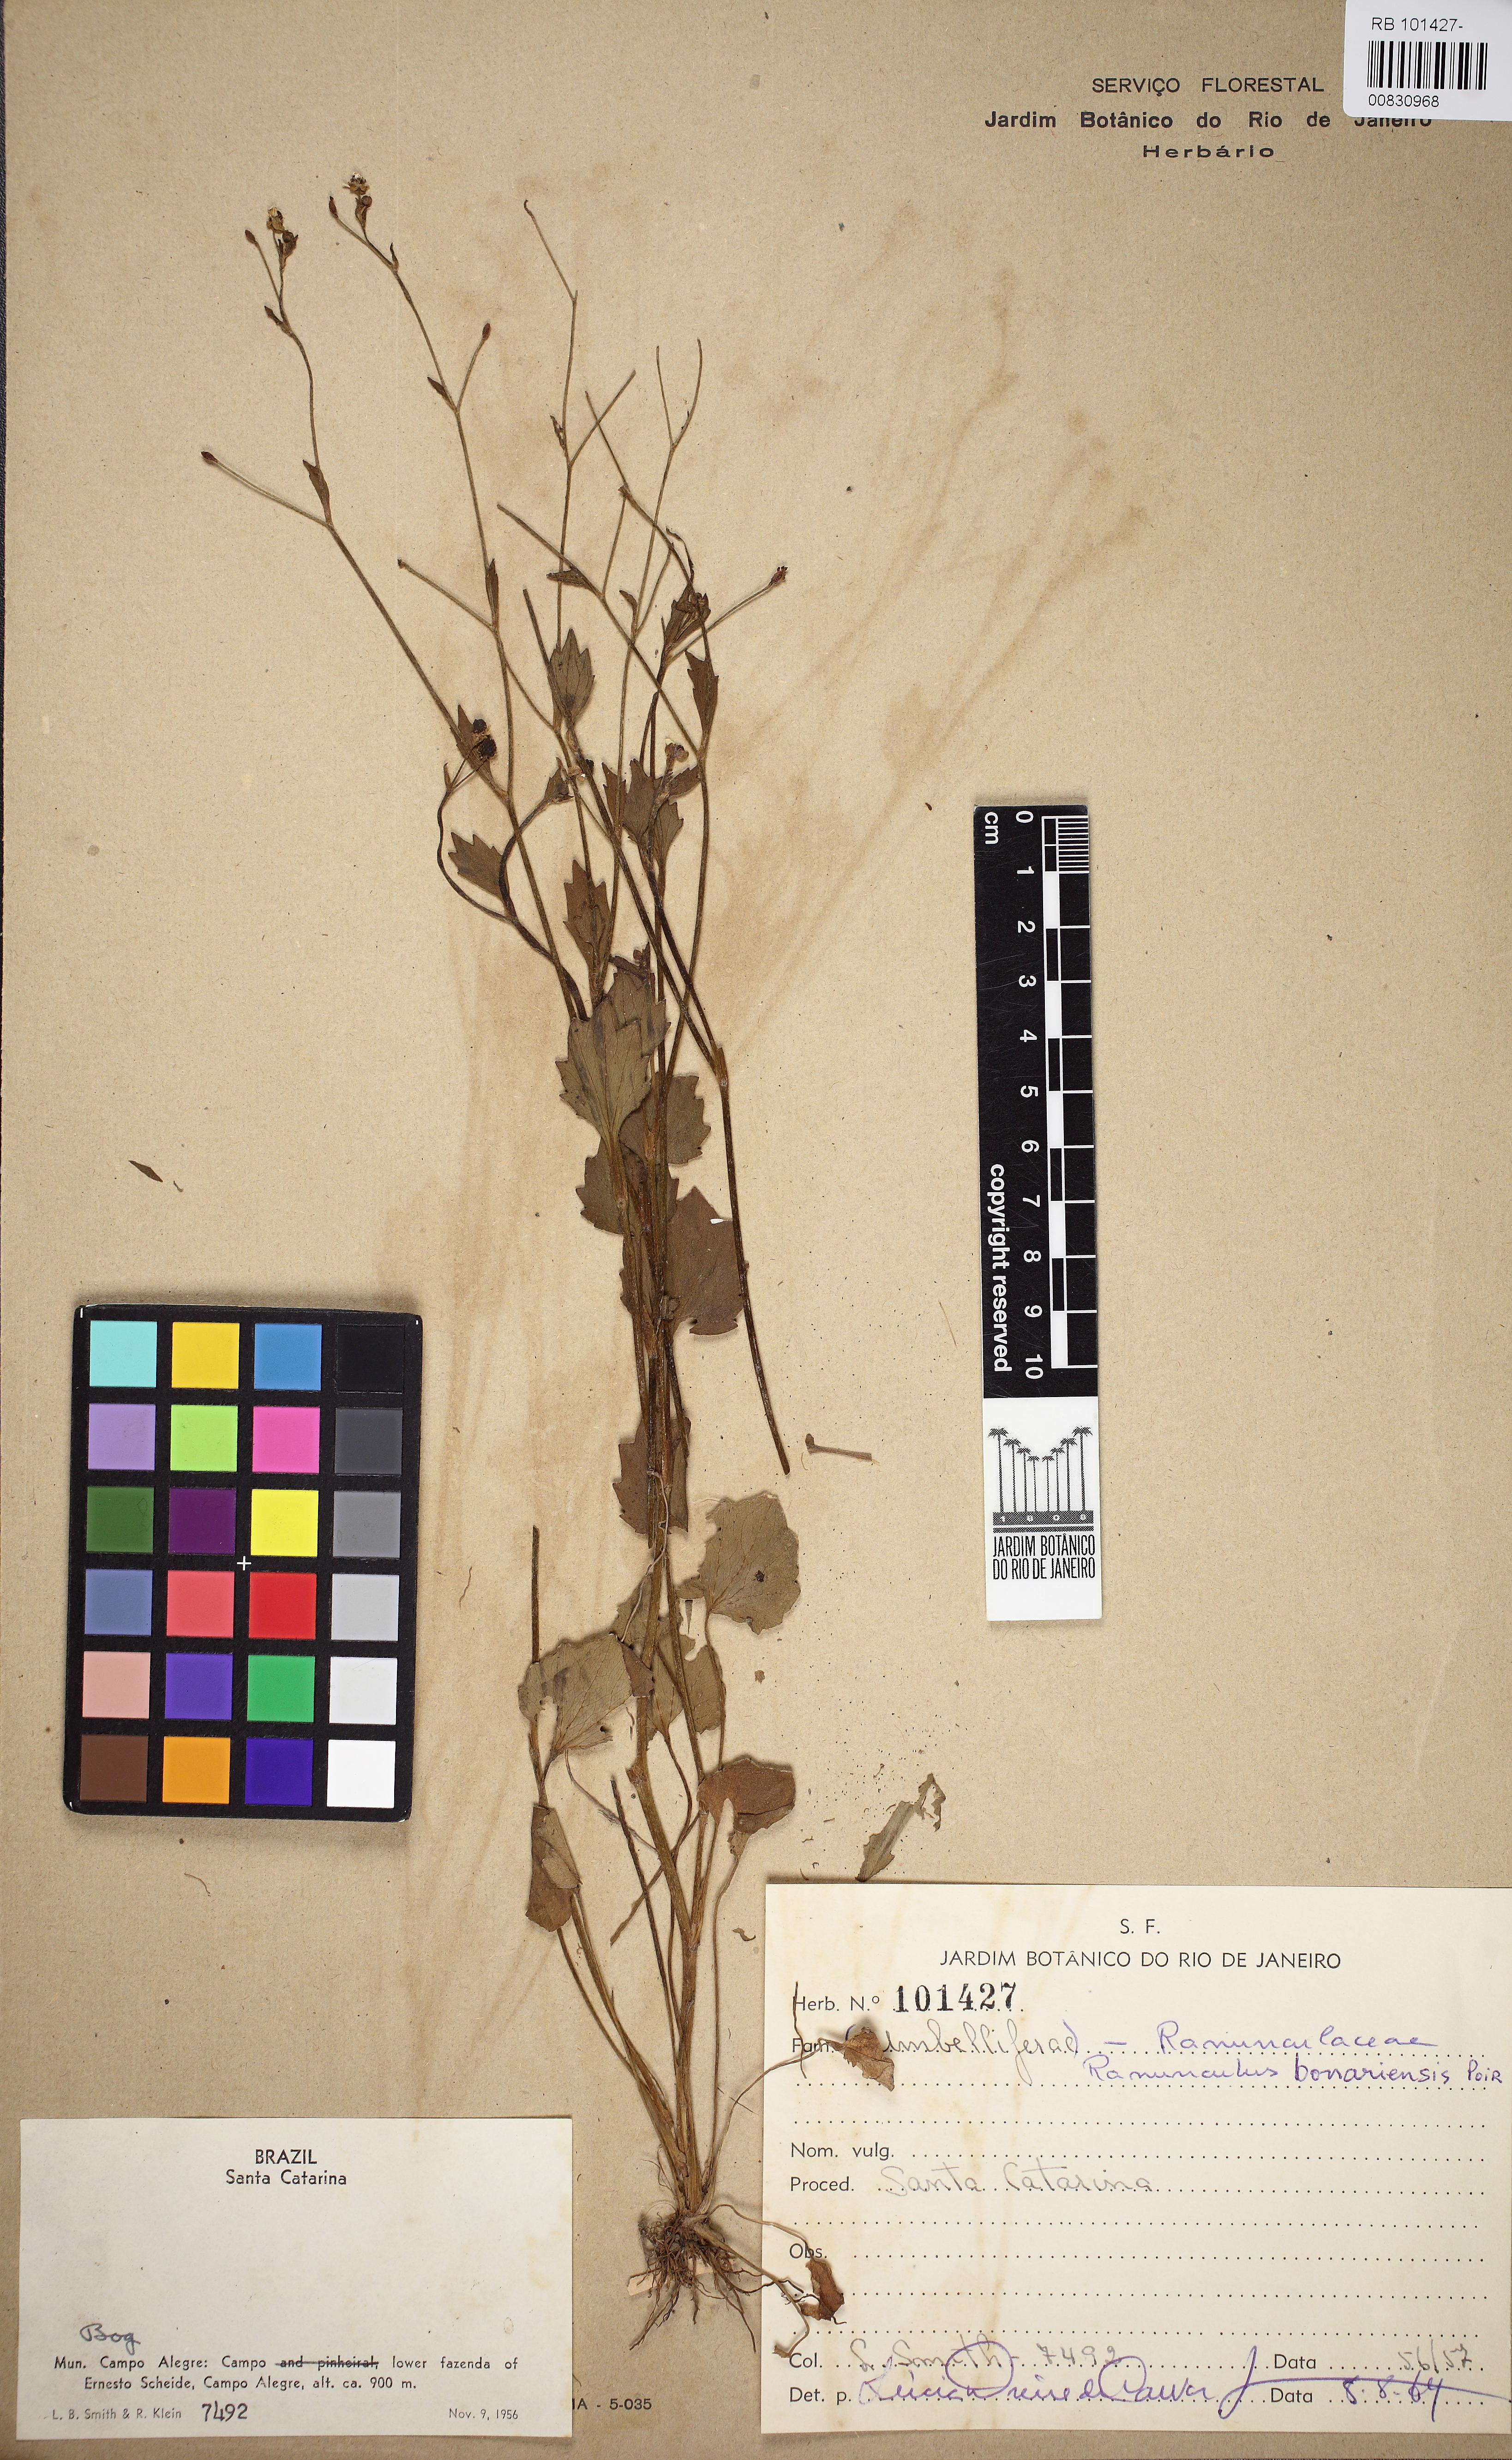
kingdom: Plantae
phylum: Tracheophyta
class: Magnoliopsida
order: Ranunculales
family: Ranunculaceae
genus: Ranunculus
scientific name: Ranunculus bonariensis
